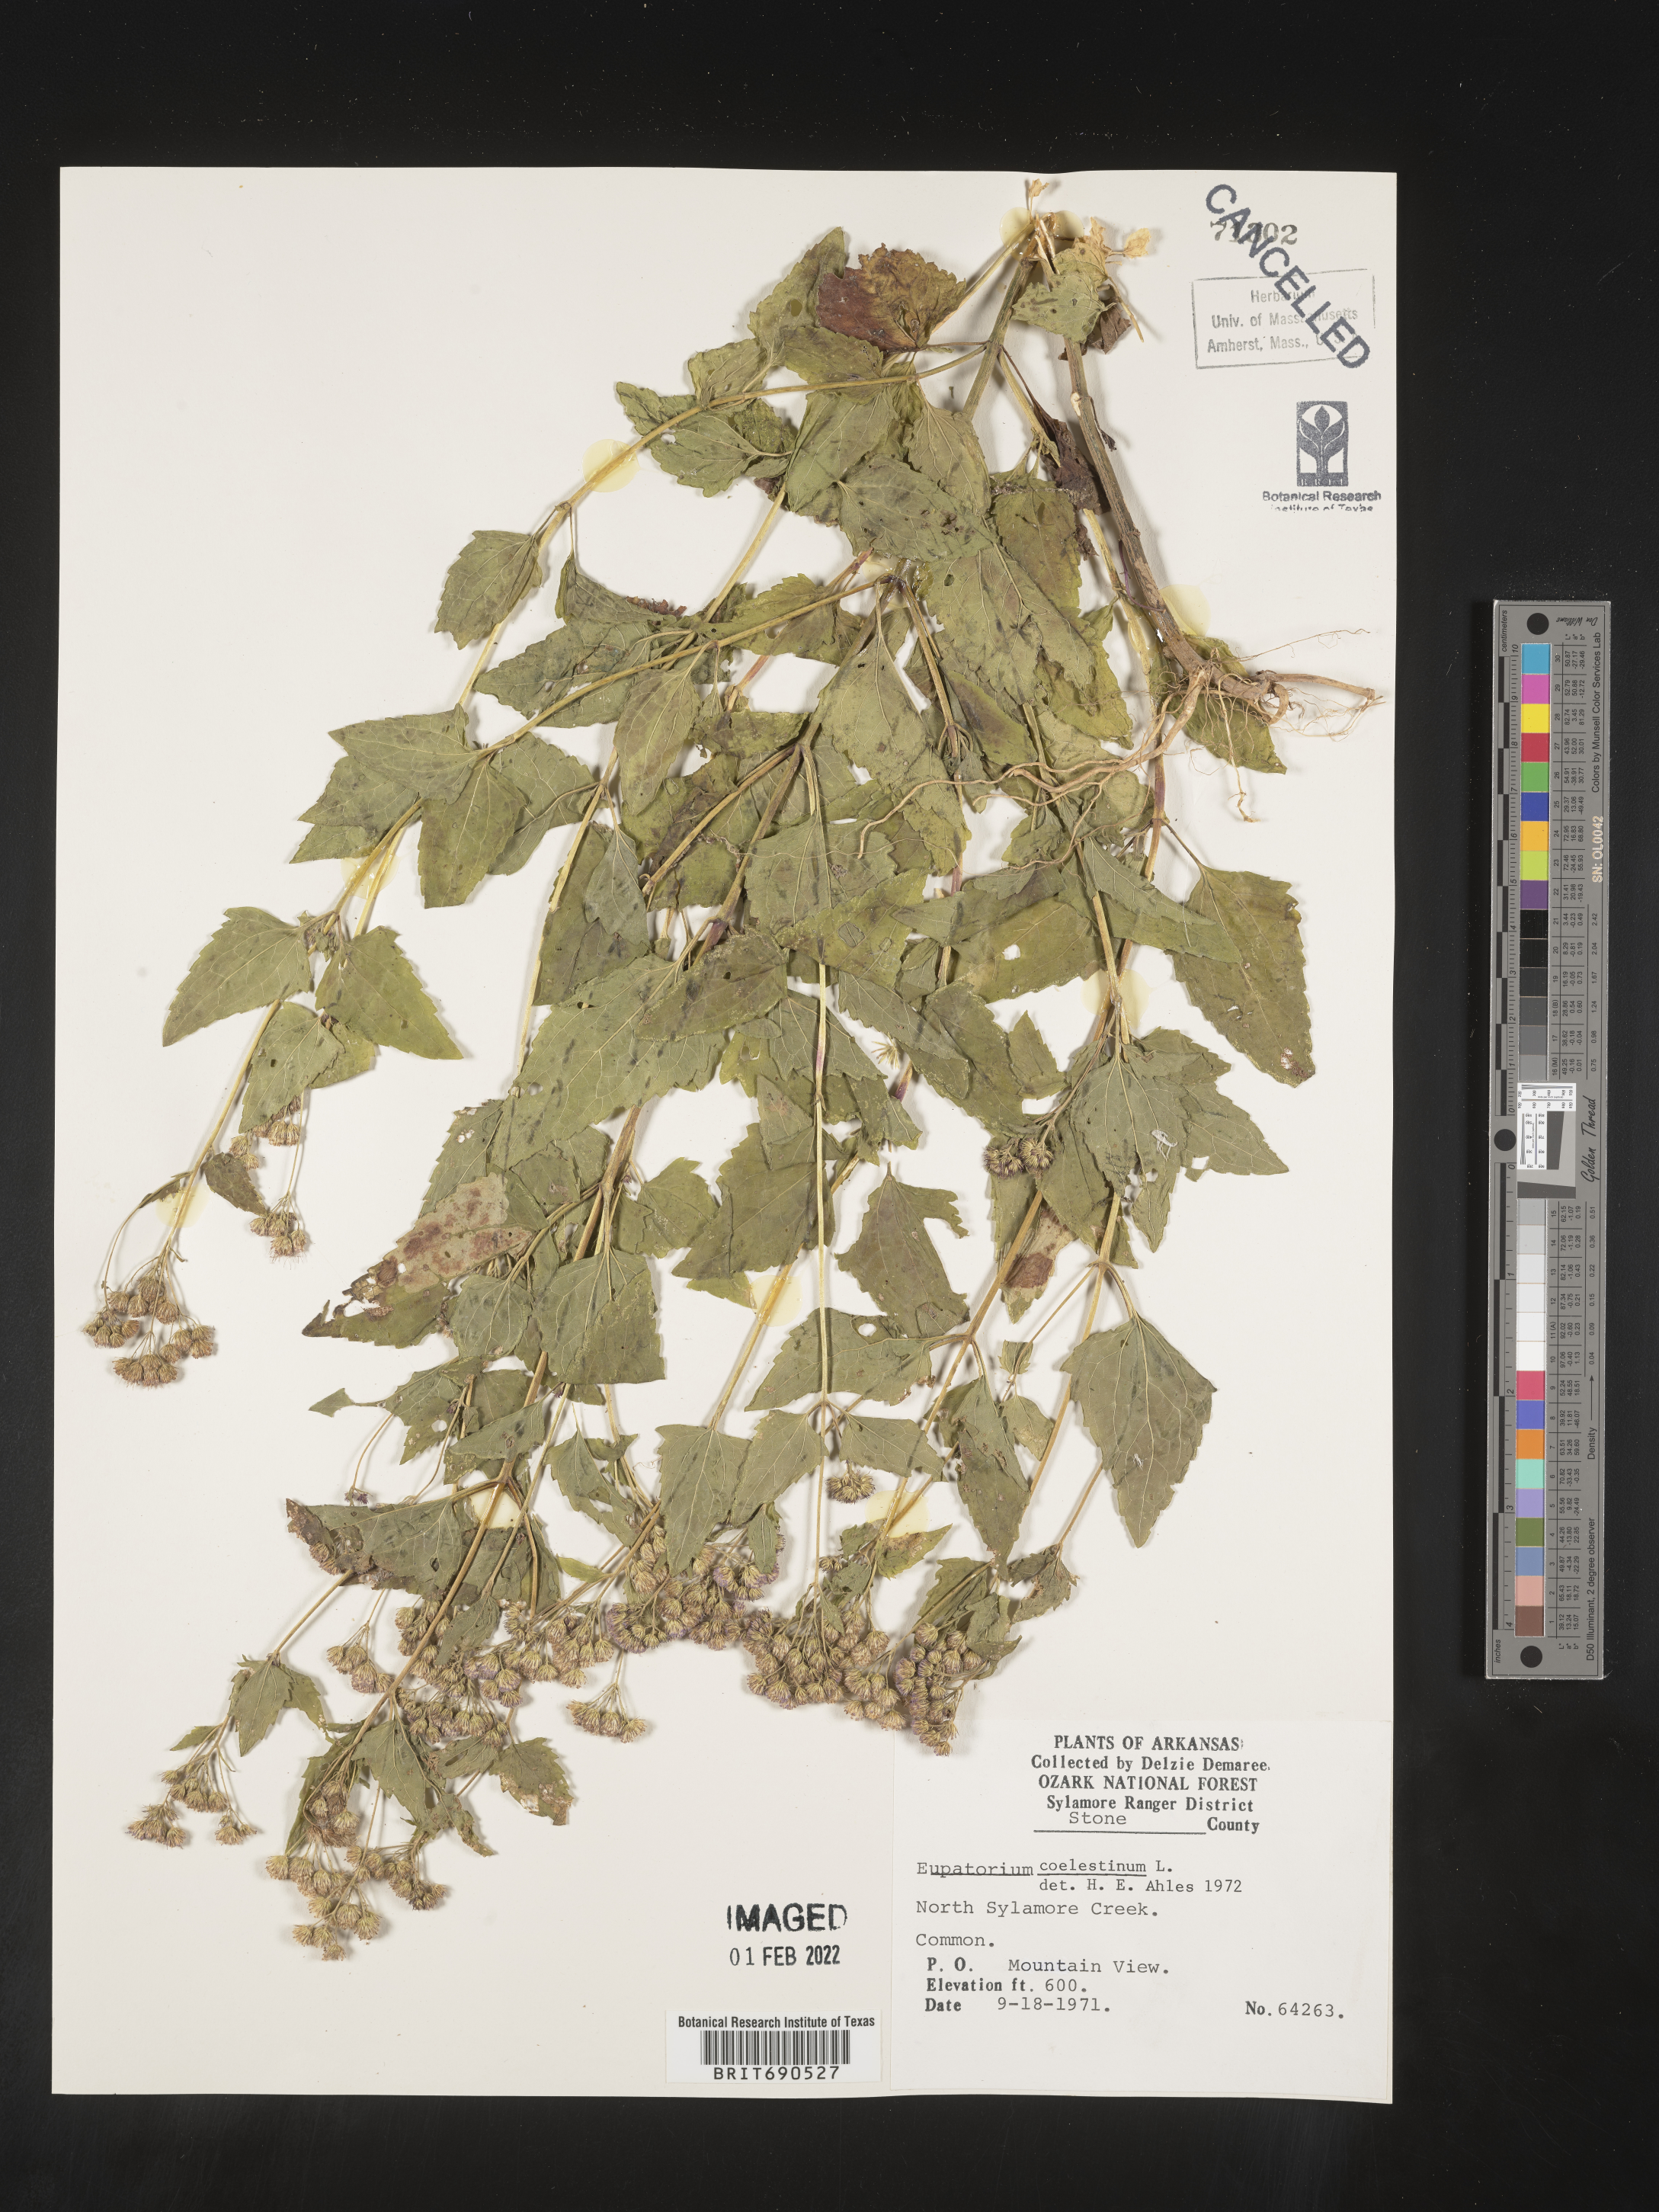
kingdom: Plantae
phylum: Tracheophyta
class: Magnoliopsida
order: Asterales
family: Asteraceae
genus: Conoclinium
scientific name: Conoclinium coelestinum
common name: Blue mistflower
